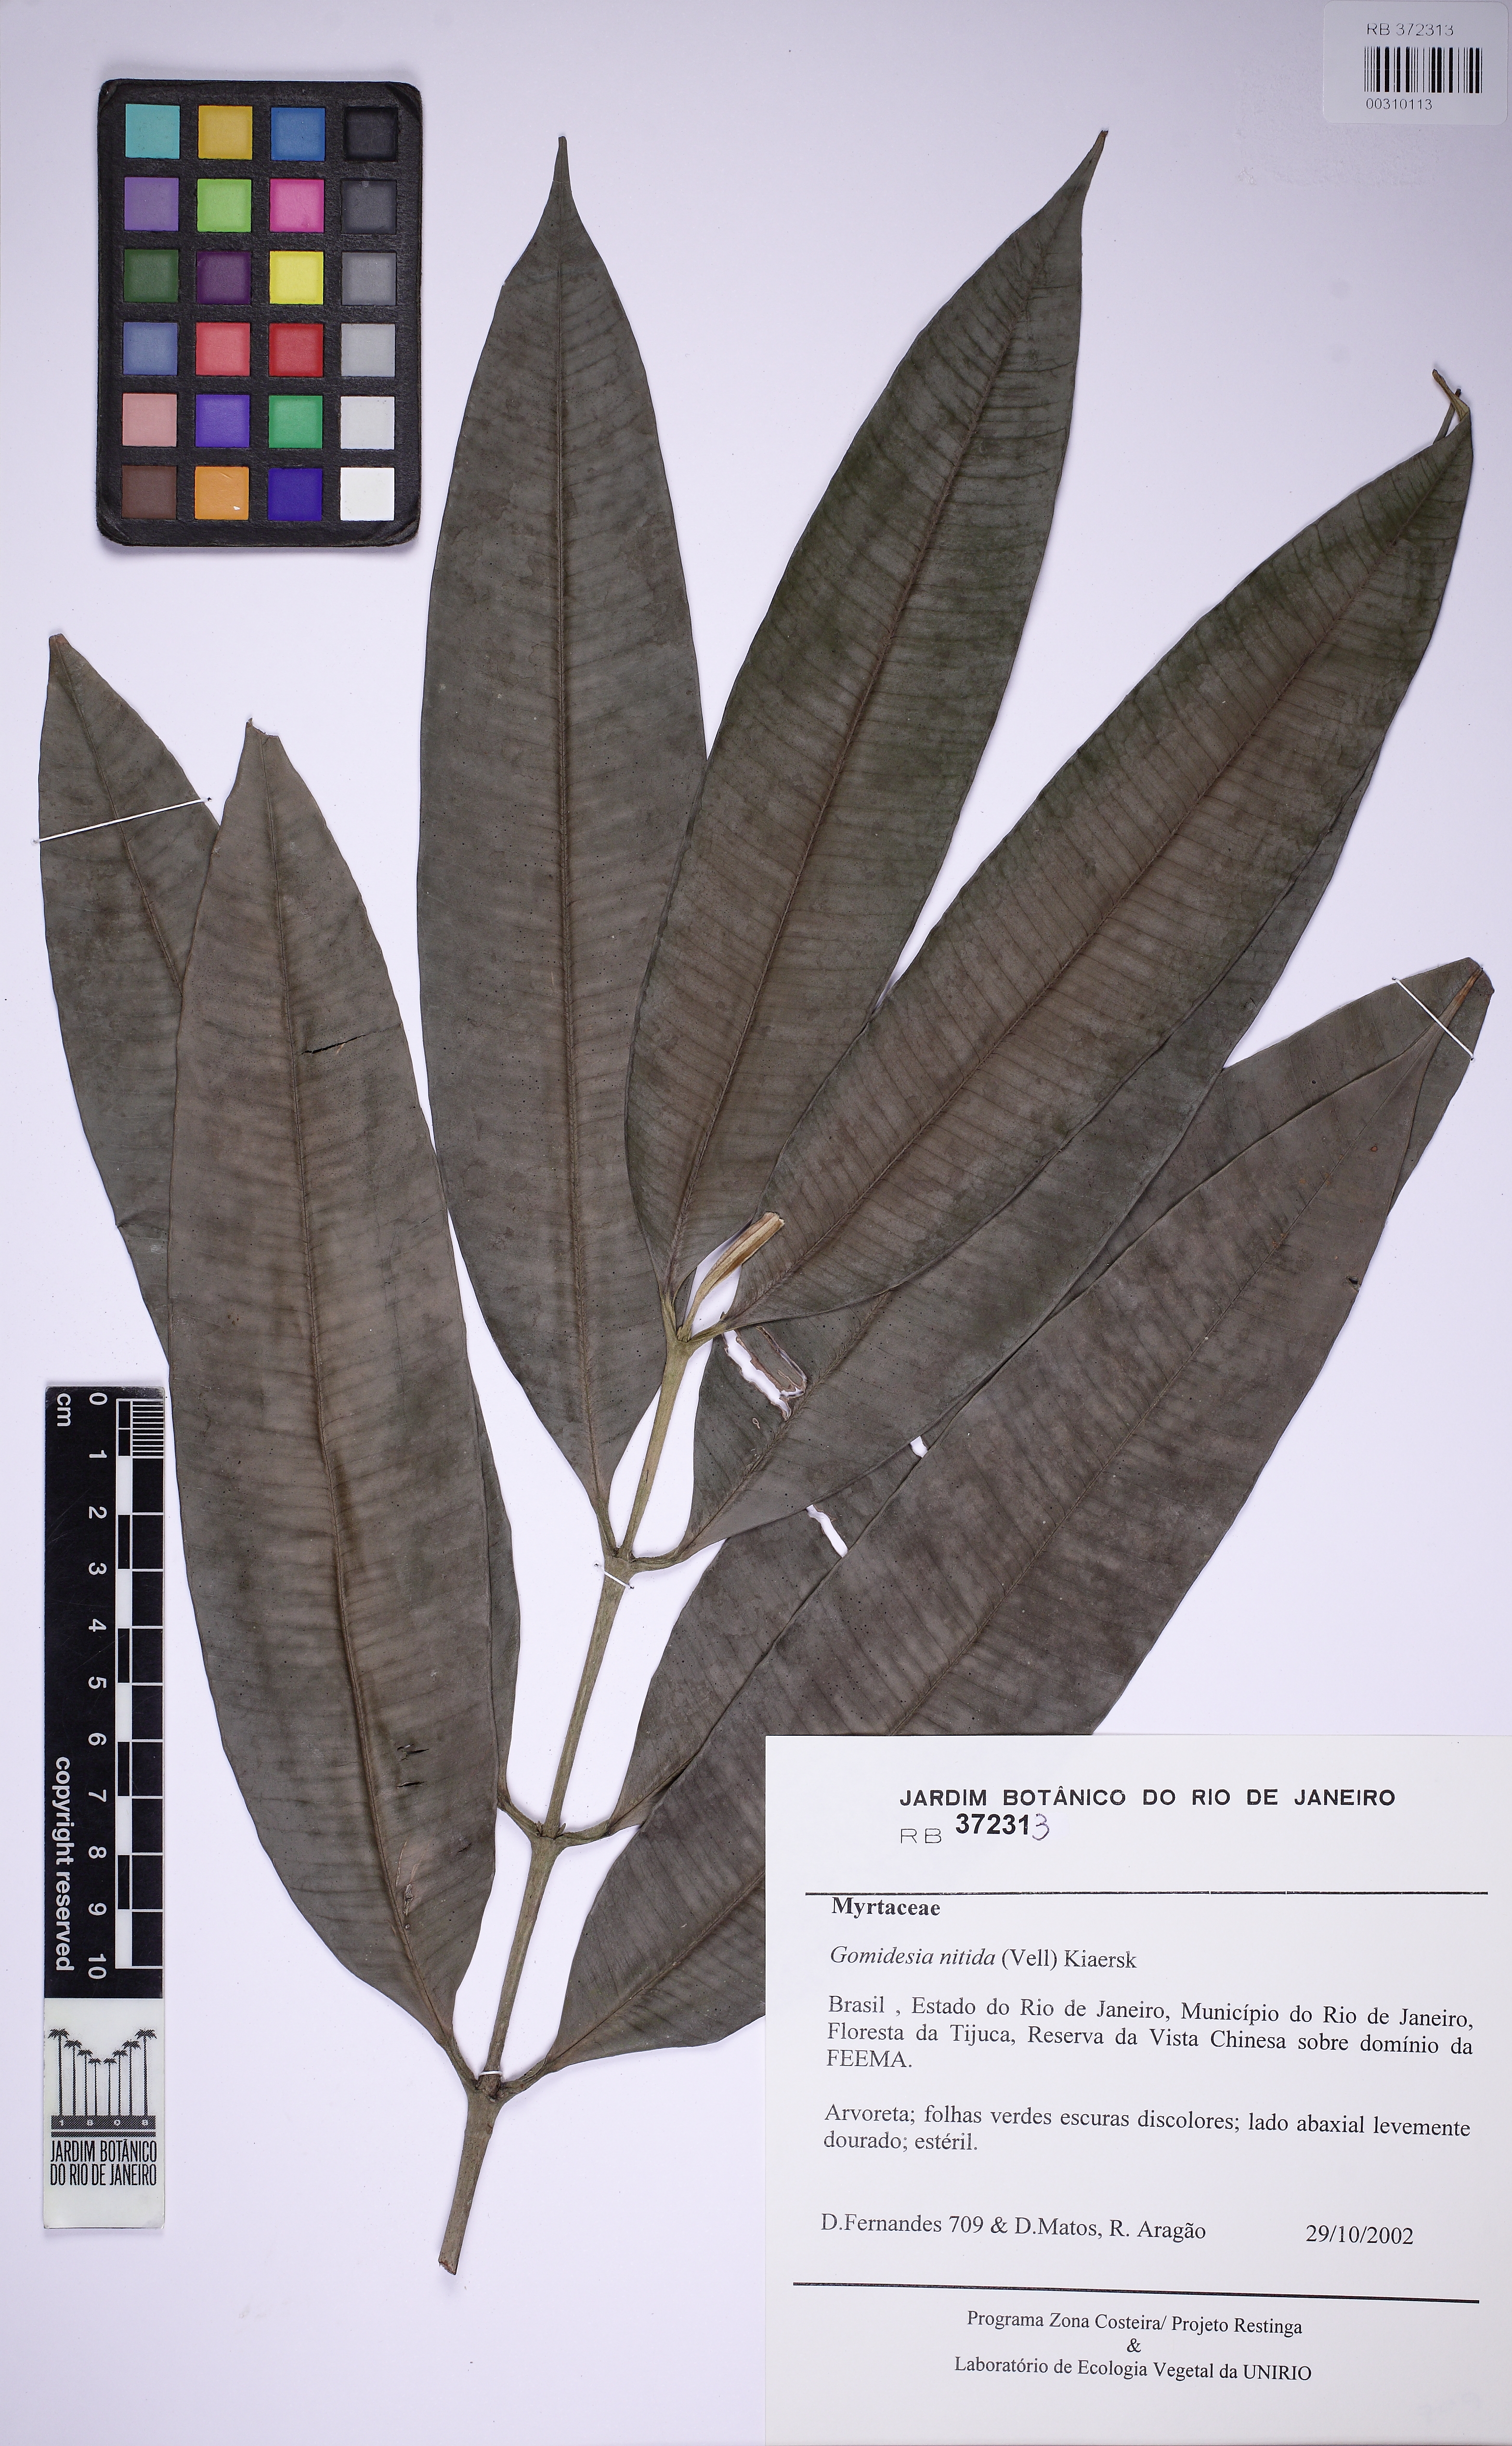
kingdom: Plantae
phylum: Tracheophyta
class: Magnoliopsida
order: Myrtales
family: Myrtaceae
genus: Myrcia
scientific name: Myrcia subsericea
